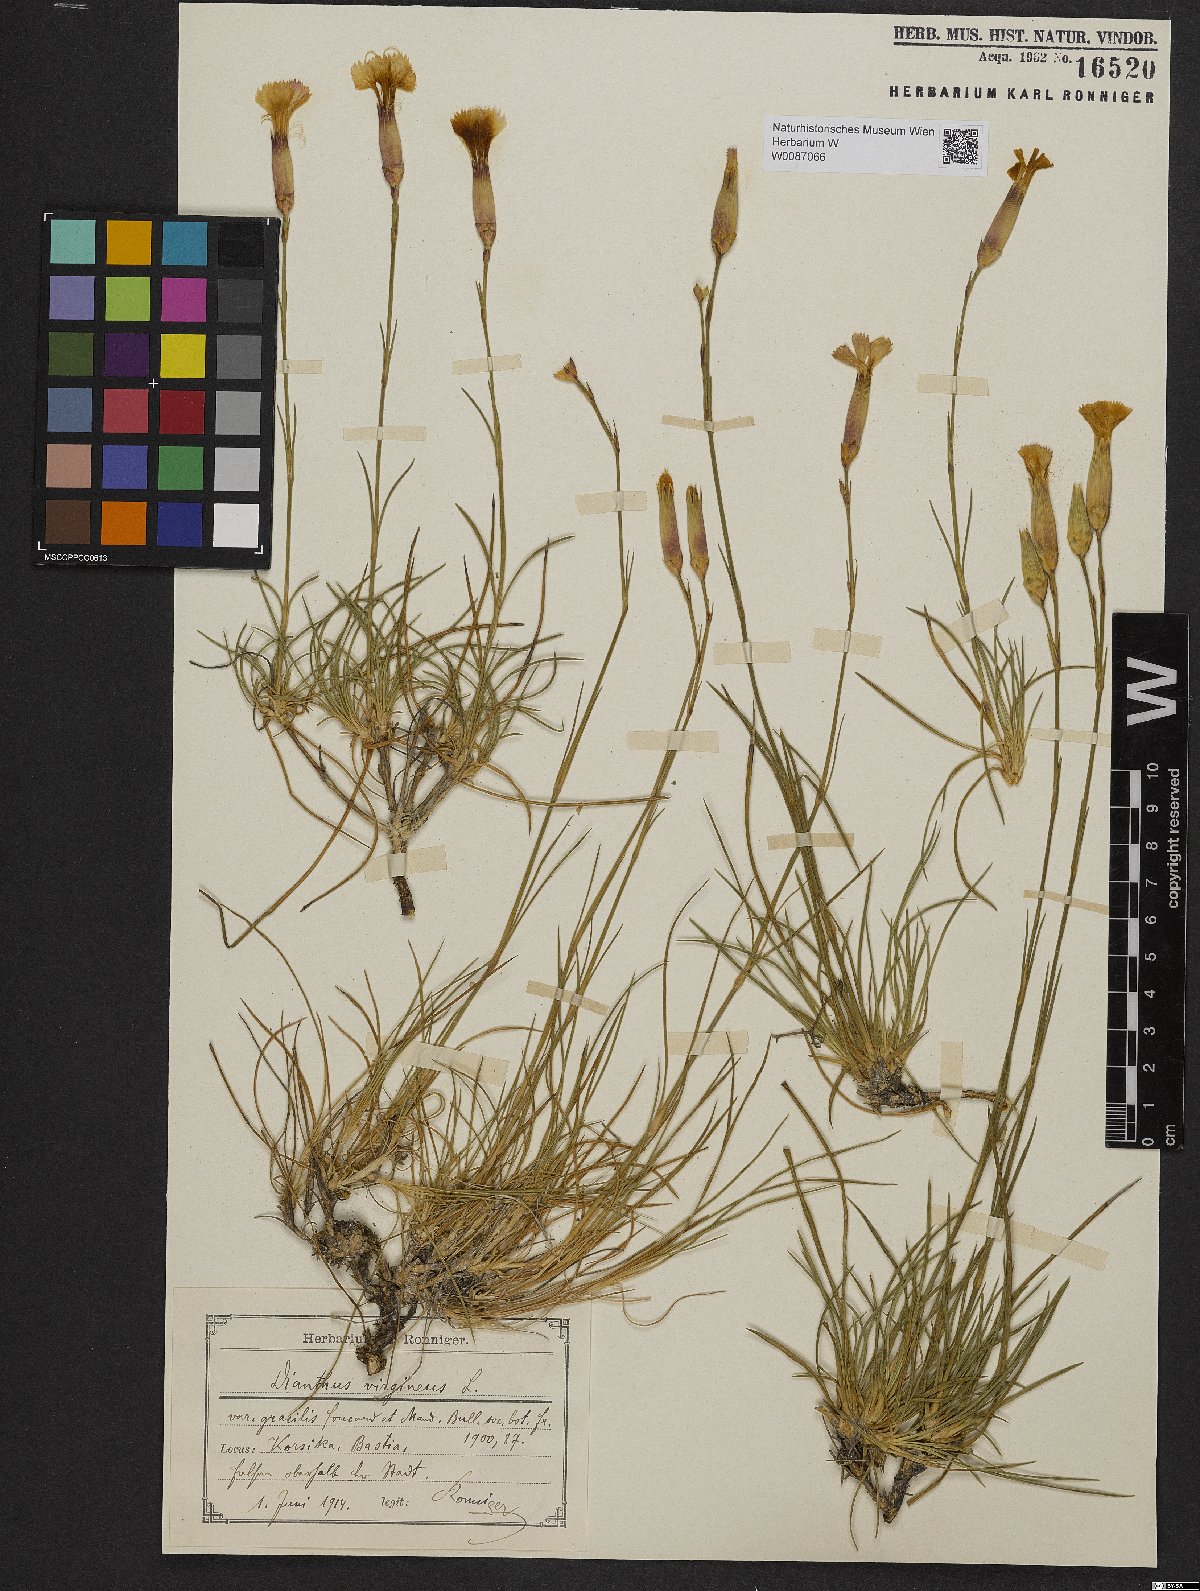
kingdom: Plantae
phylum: Tracheophyta
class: Magnoliopsida
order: Caryophyllales
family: Caryophyllaceae
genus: Dianthus
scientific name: Dianthus virgineus
